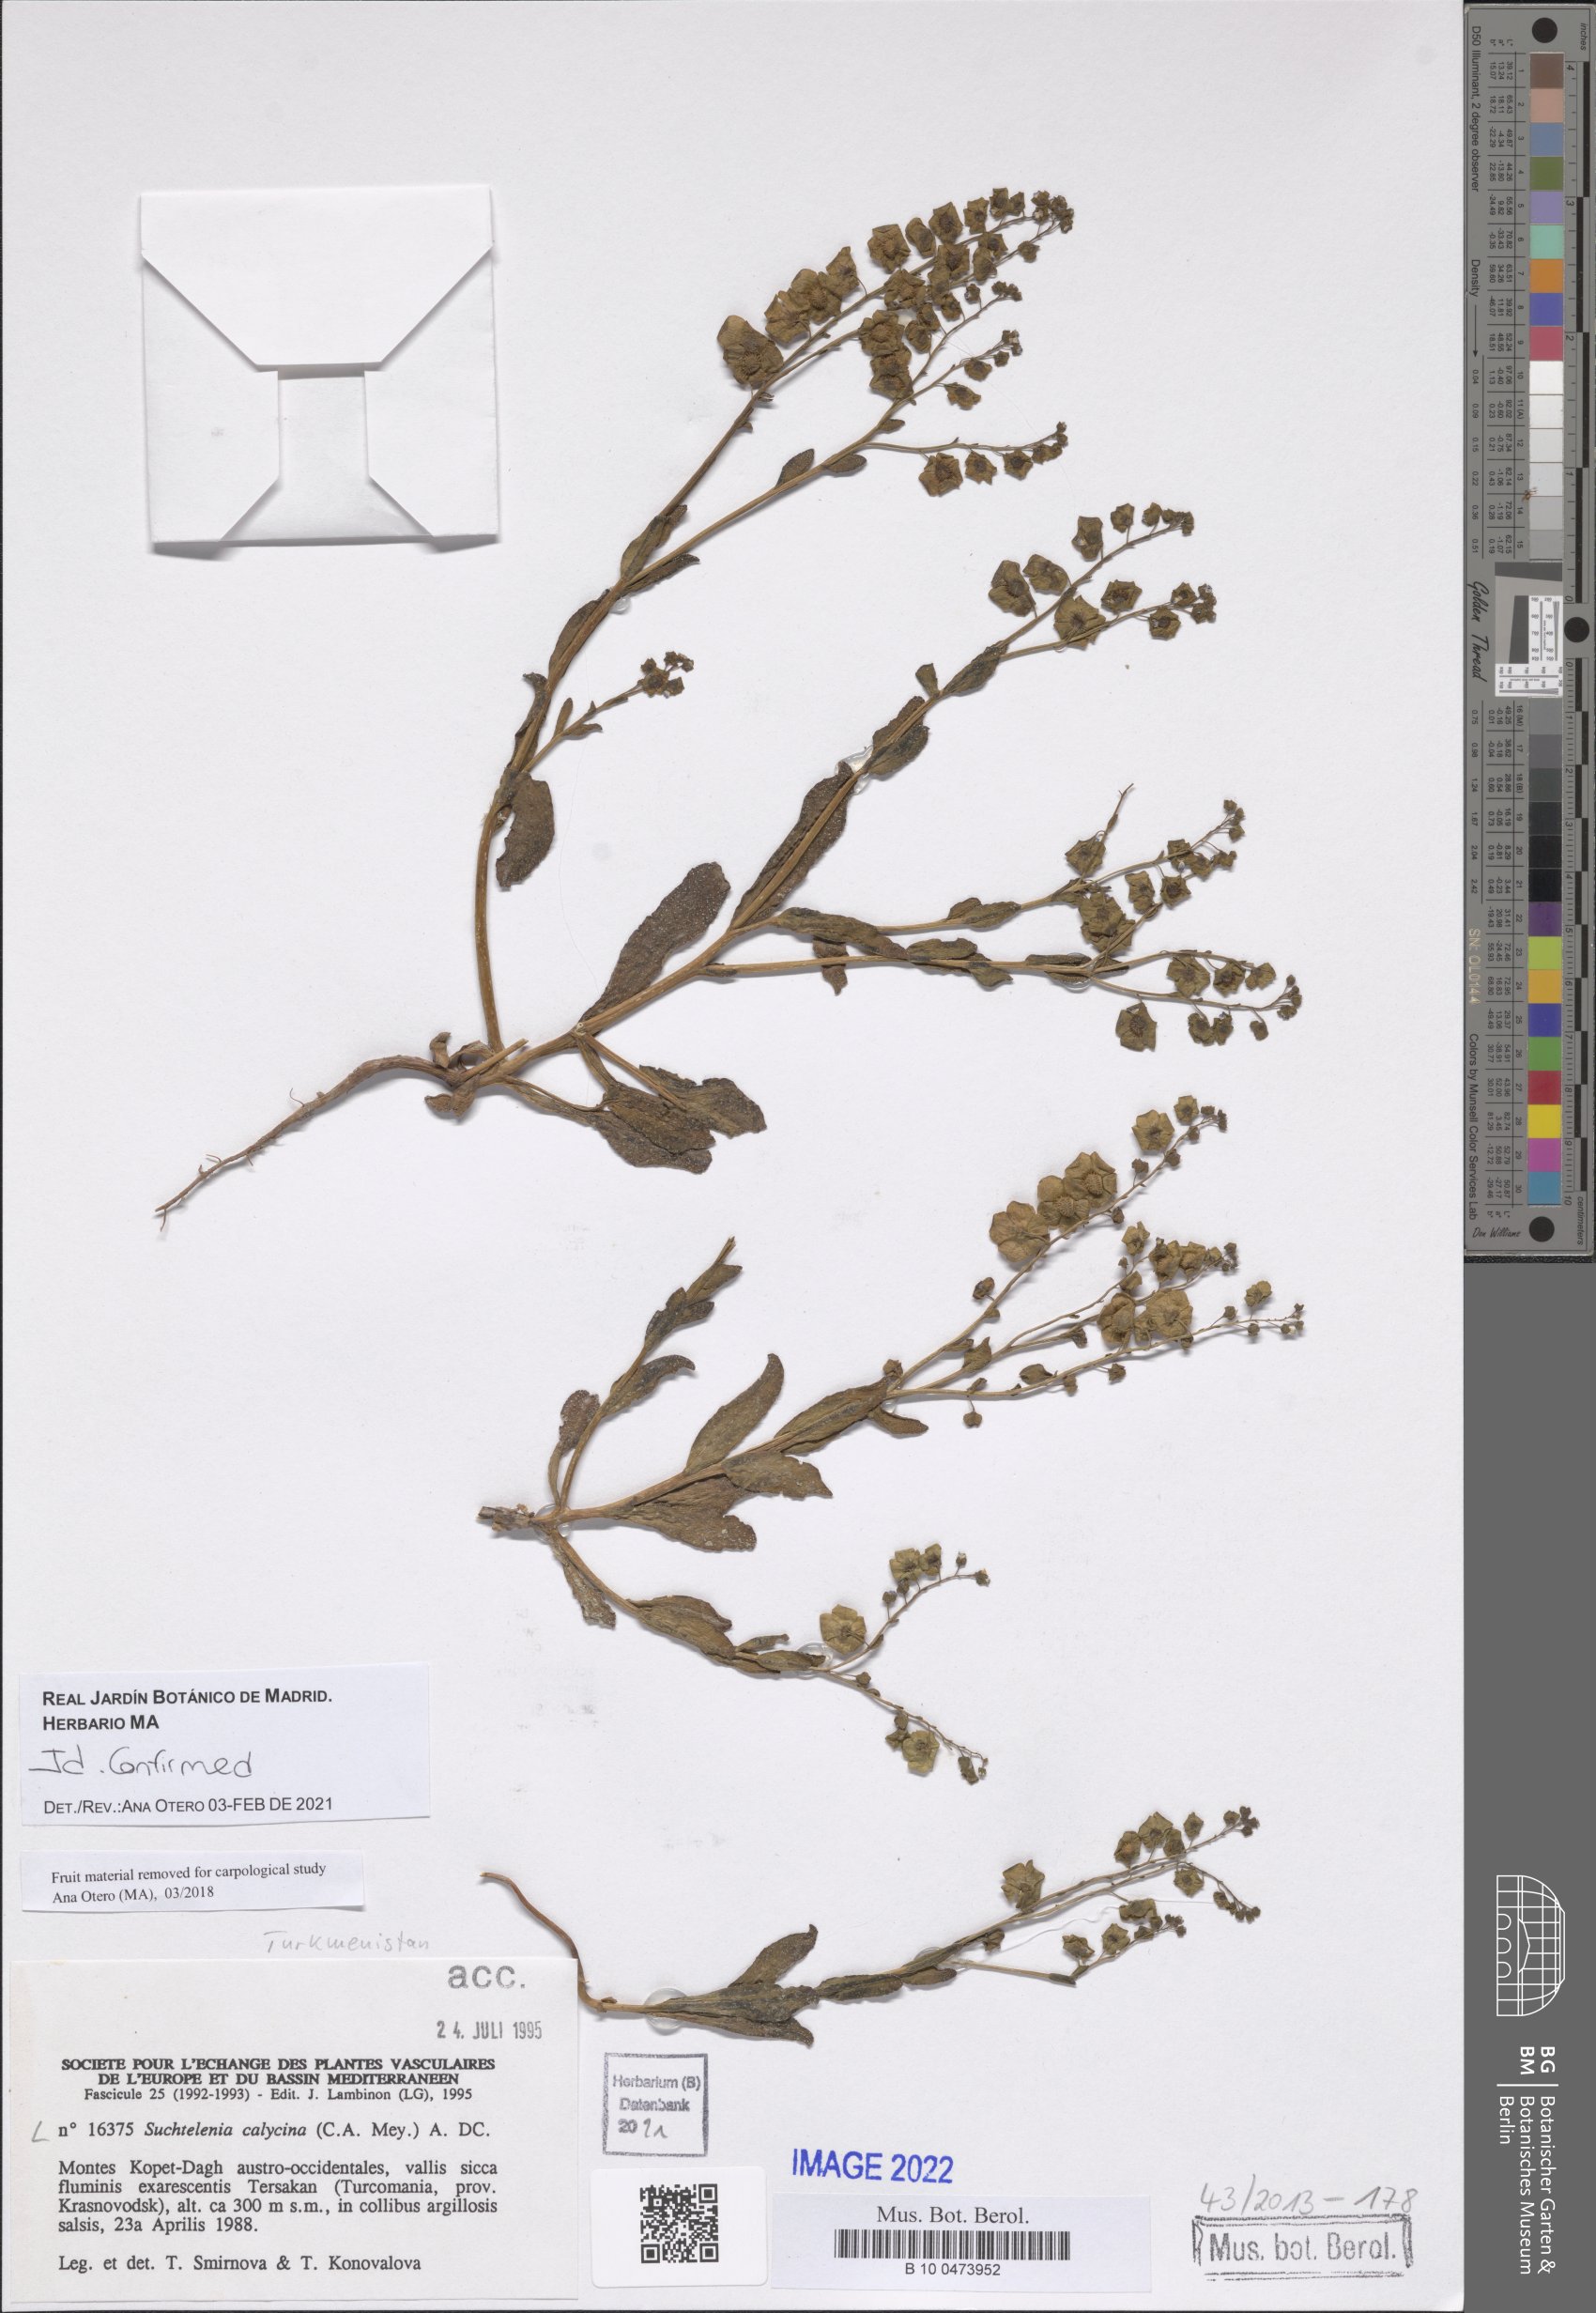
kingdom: Plantae
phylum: Tracheophyta
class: Magnoliopsida
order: Boraginales
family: Boraginaceae
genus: Suchtelenia
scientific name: Suchtelenia calycina
